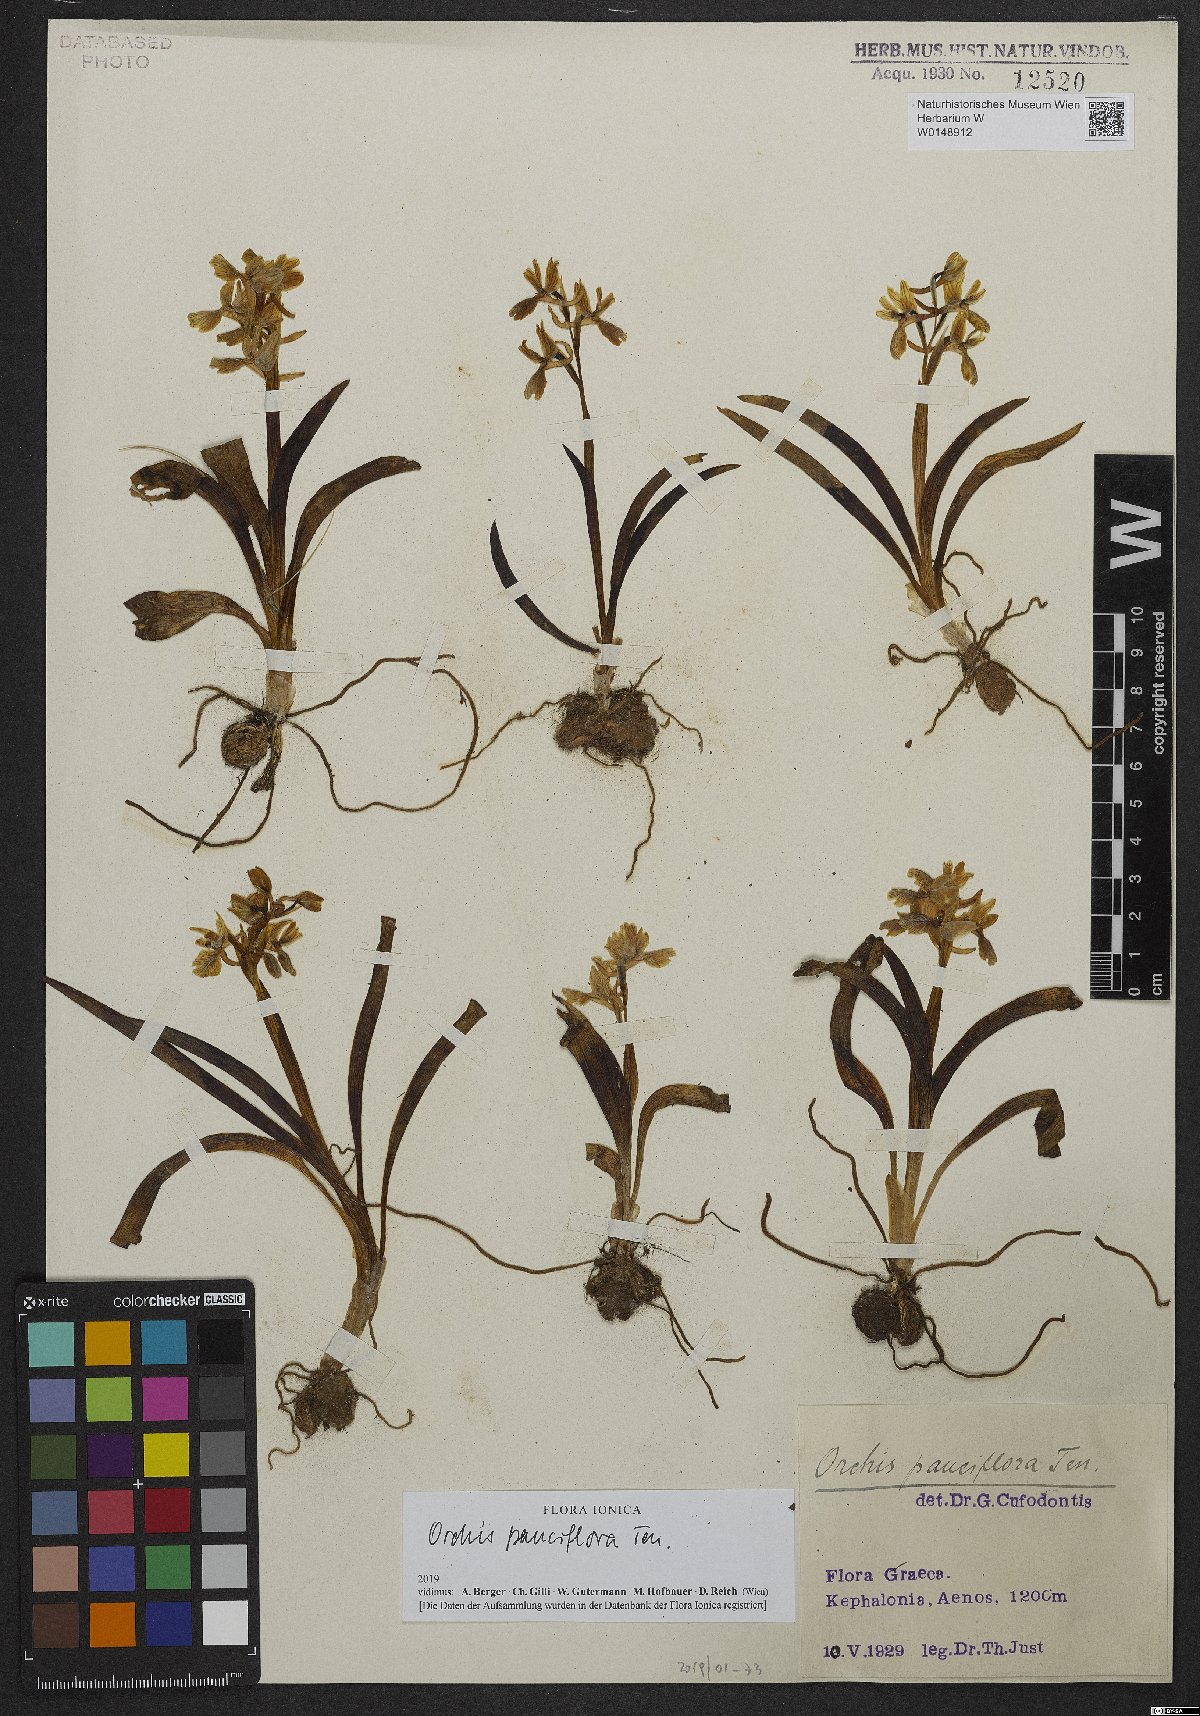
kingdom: Plantae
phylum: Tracheophyta
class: Liliopsida
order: Asparagales
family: Orchidaceae
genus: Orchis
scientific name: Orchis pauciflora
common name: Few-flowered orchid
